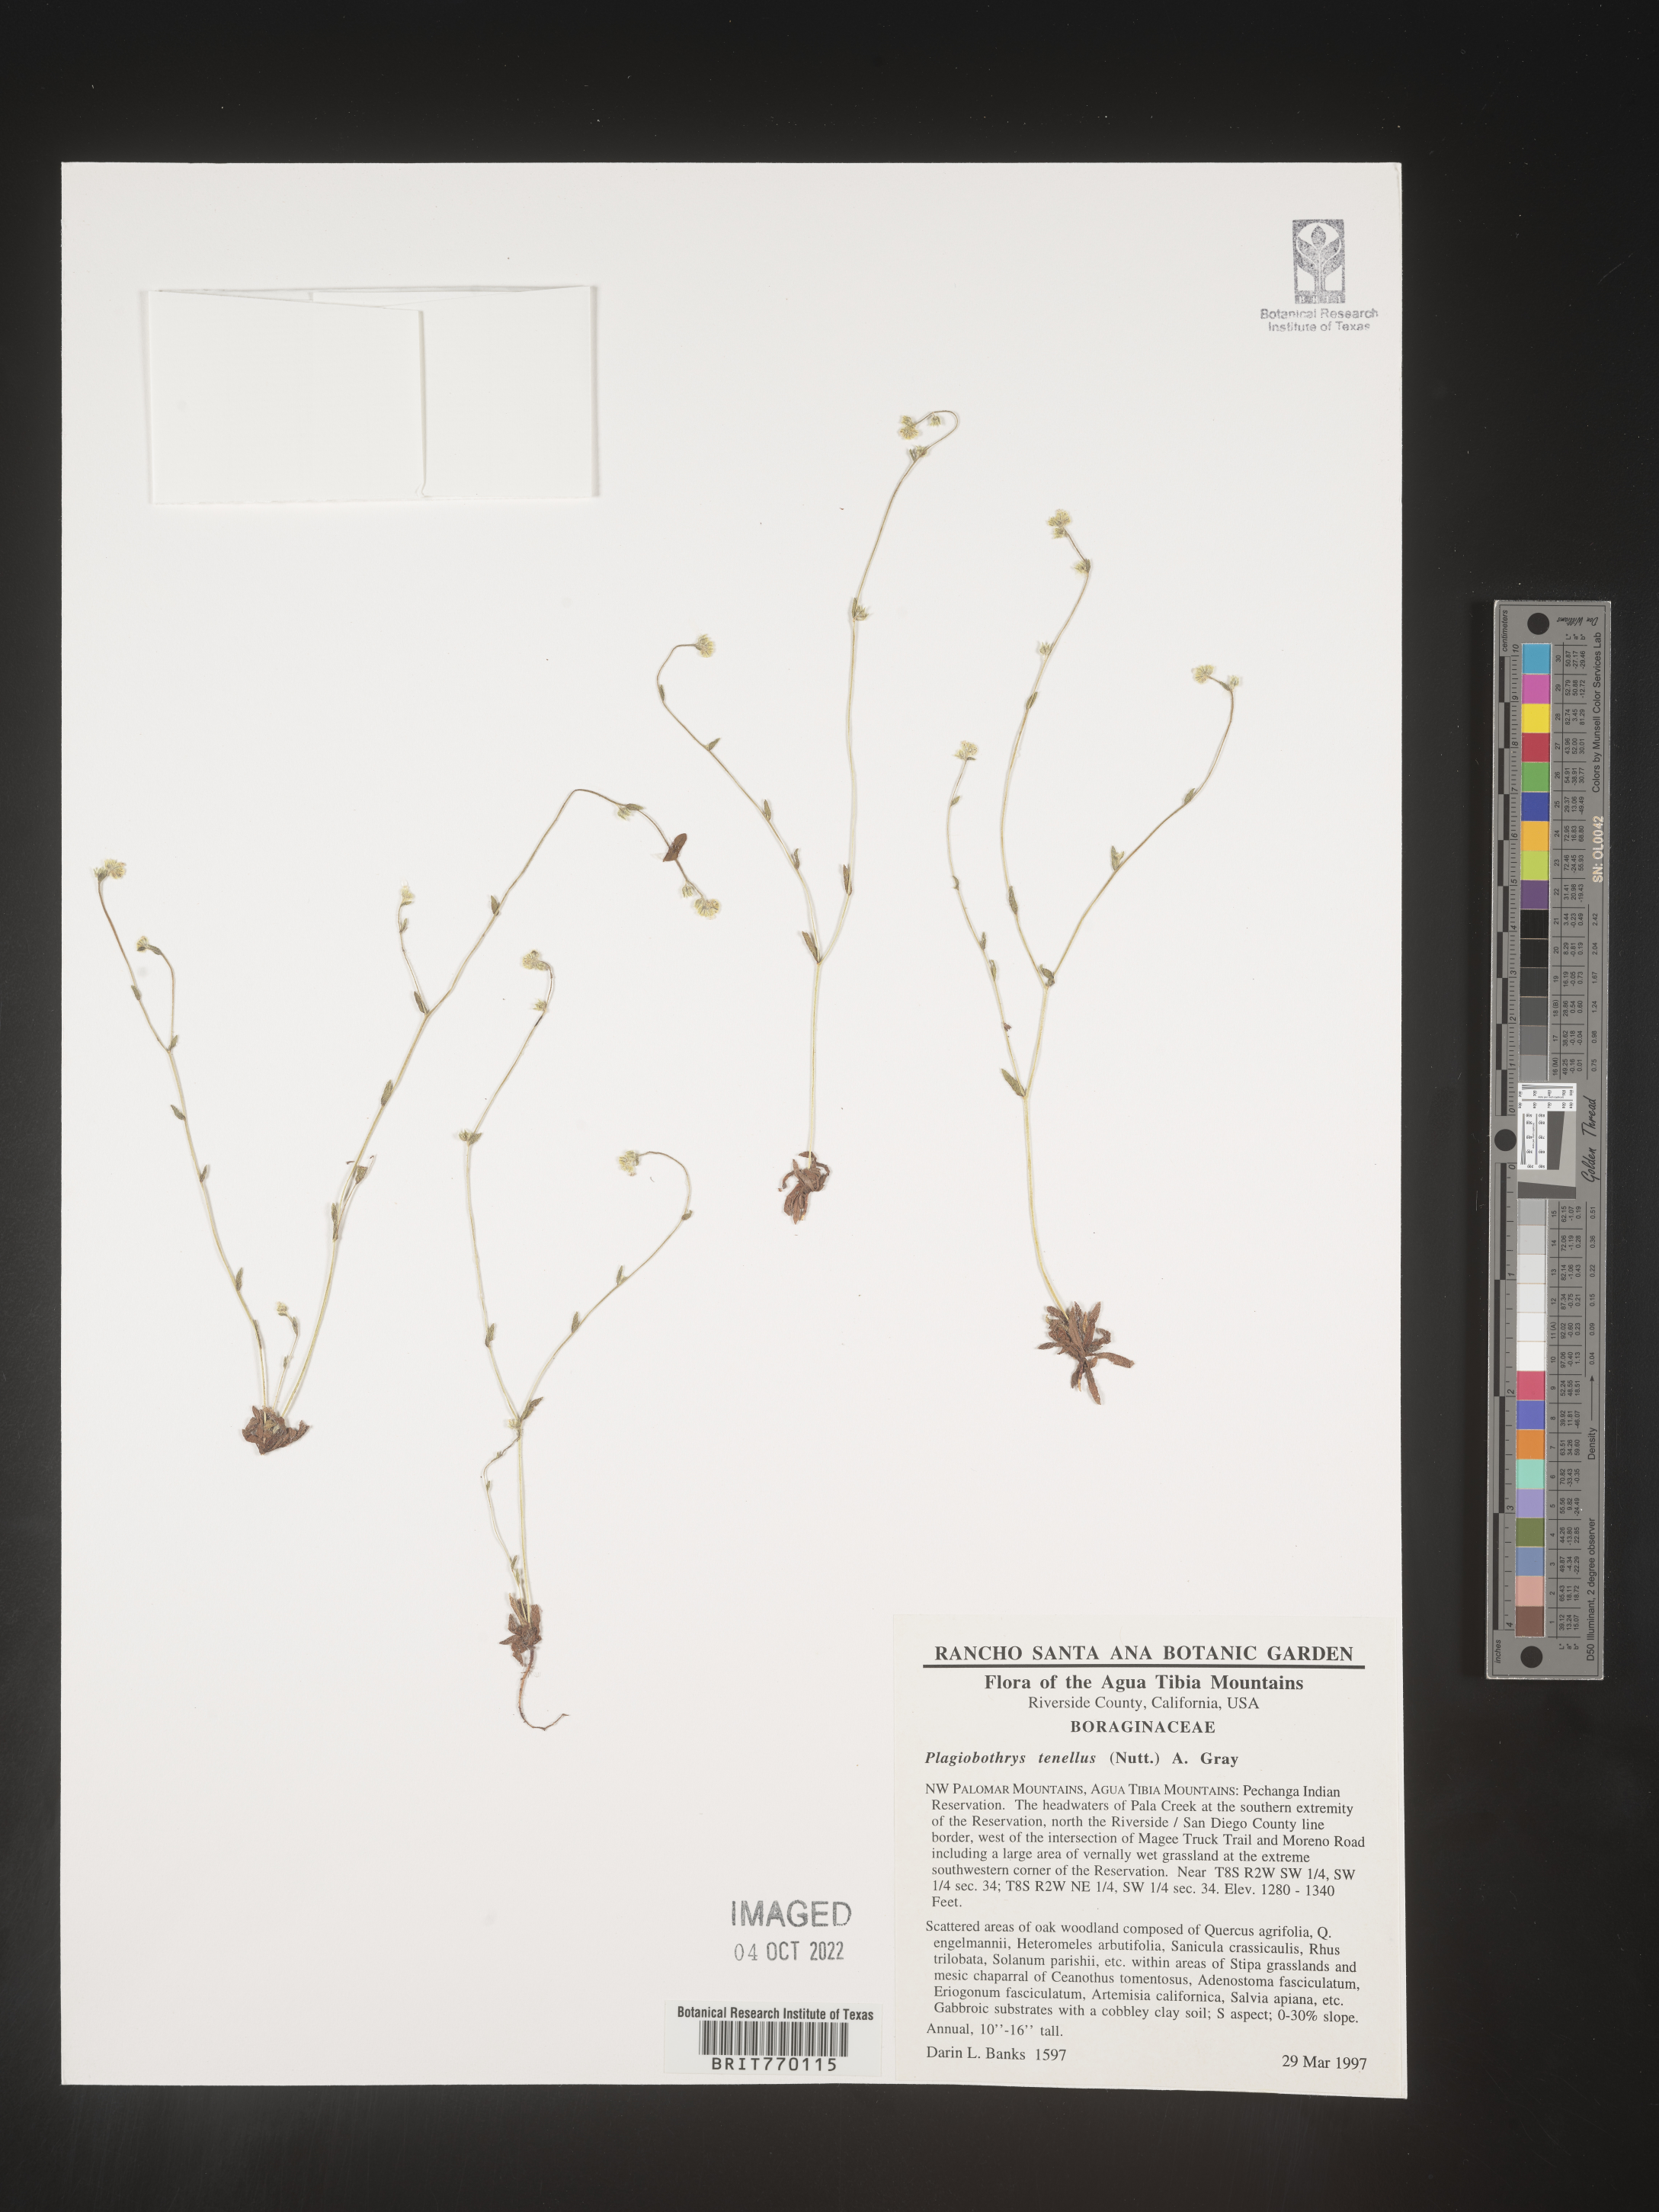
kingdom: Plantae
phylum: Tracheophyta
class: Magnoliopsida
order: Boraginales
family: Boraginaceae
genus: Plagiobothrys
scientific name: Plagiobothrys
